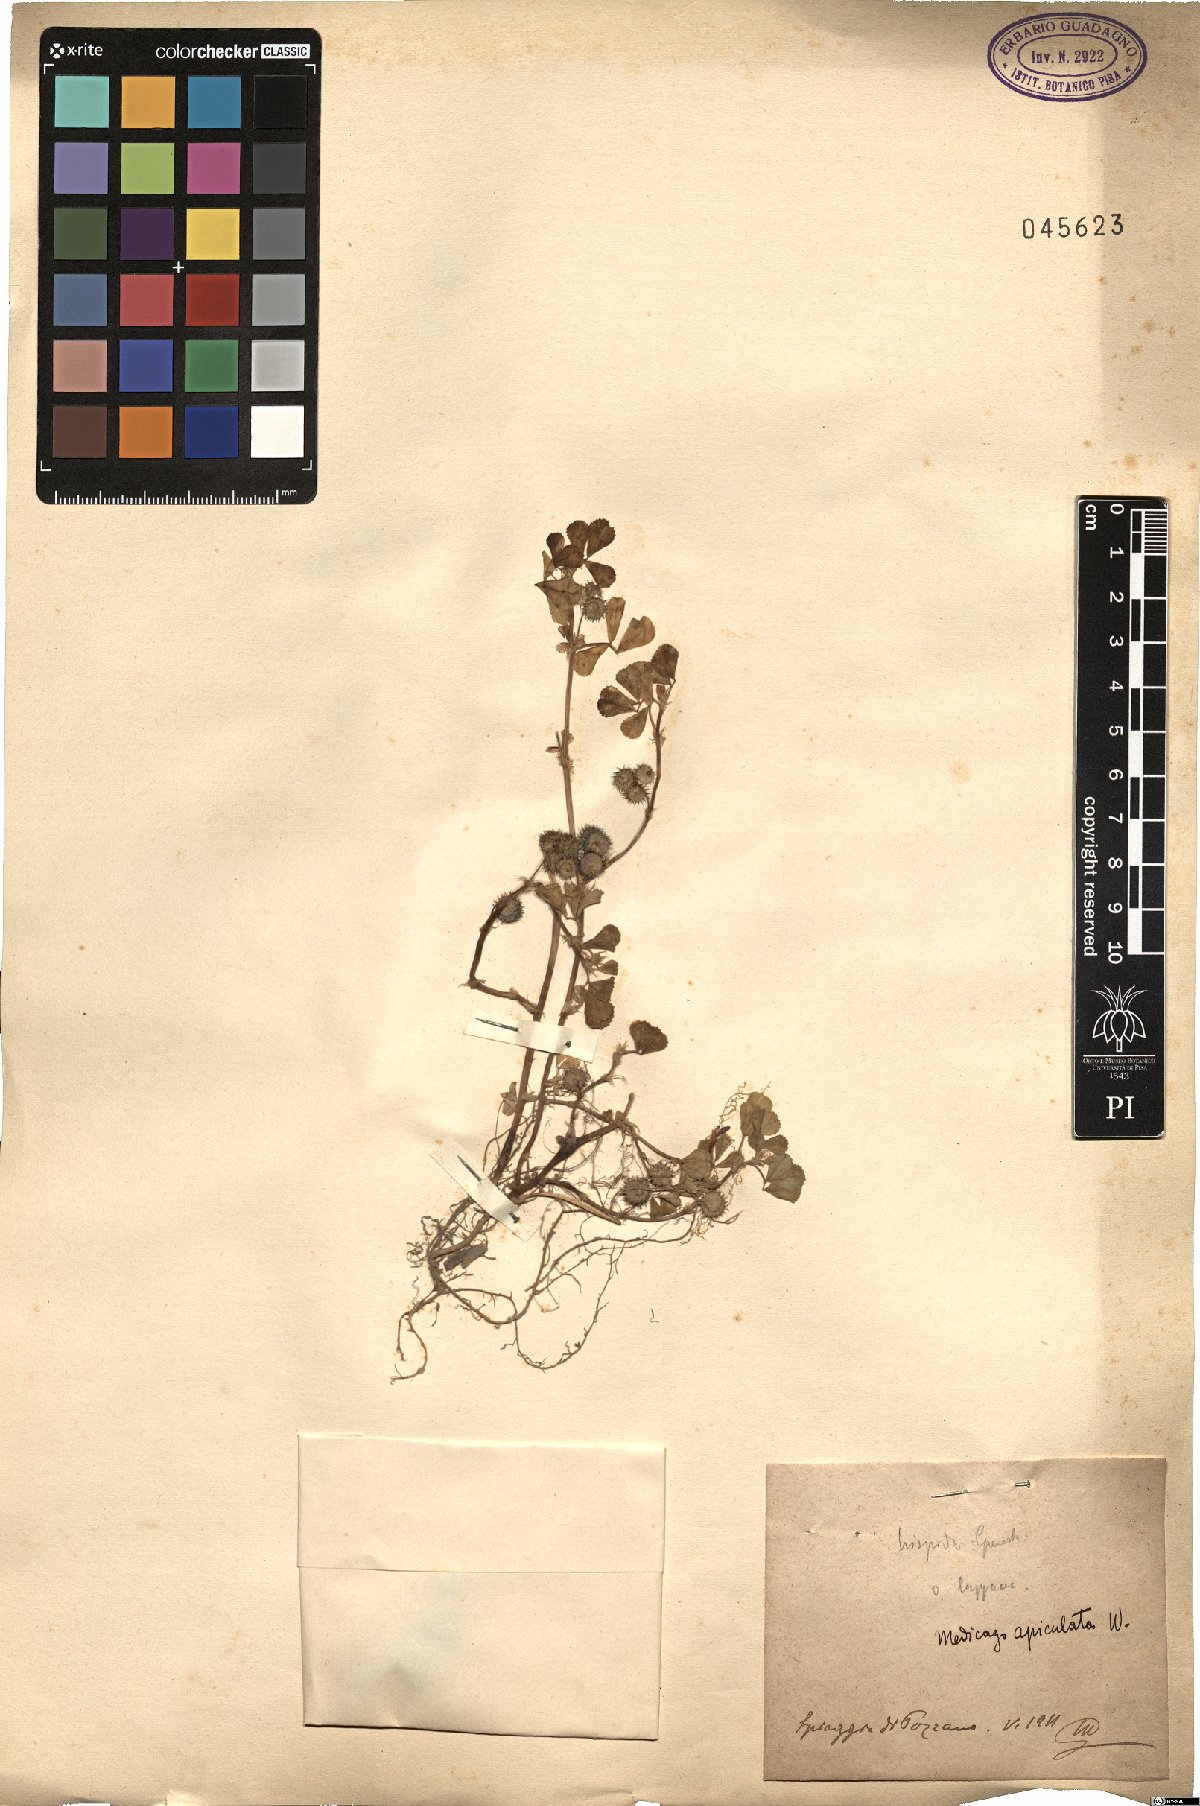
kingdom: Plantae
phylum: Tracheophyta
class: Magnoliopsida
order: Fabales
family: Fabaceae
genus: Medicago
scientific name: Medicago polymorpha
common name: Burclover
